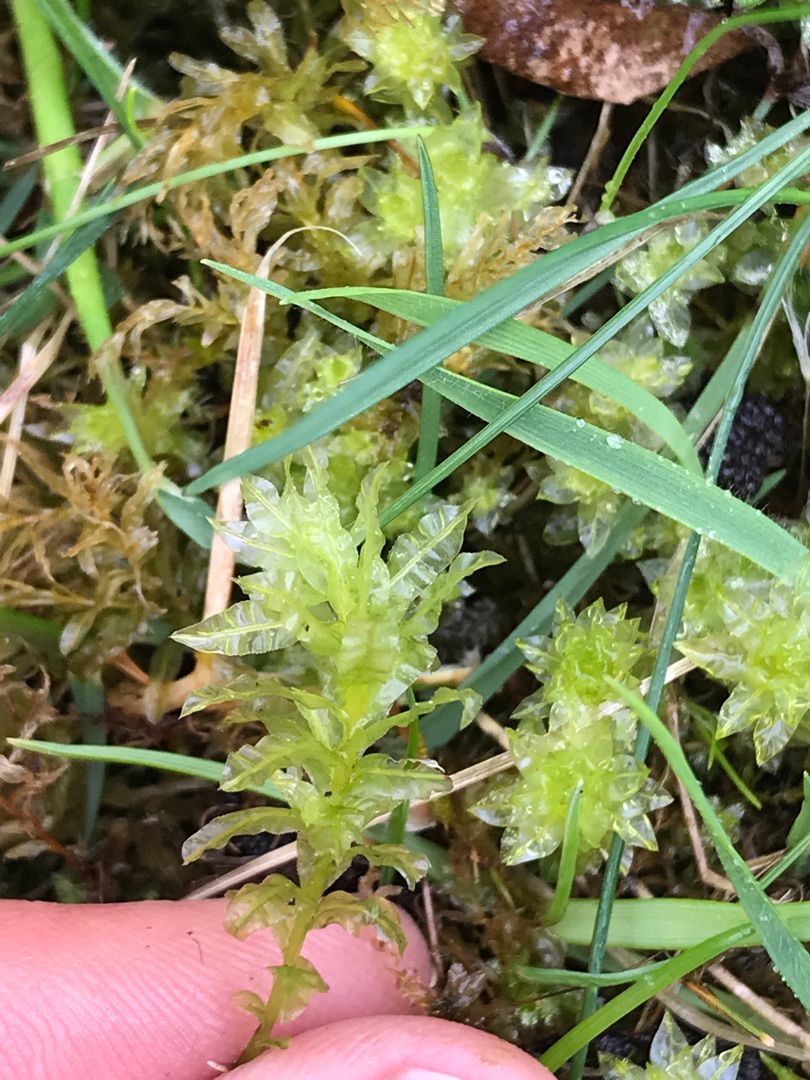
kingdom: Plantae
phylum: Bryophyta
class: Bryopsida
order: Bryales
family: Mniaceae
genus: Plagiomnium
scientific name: Plagiomnium undulatum
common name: Bølget krybstjerne
